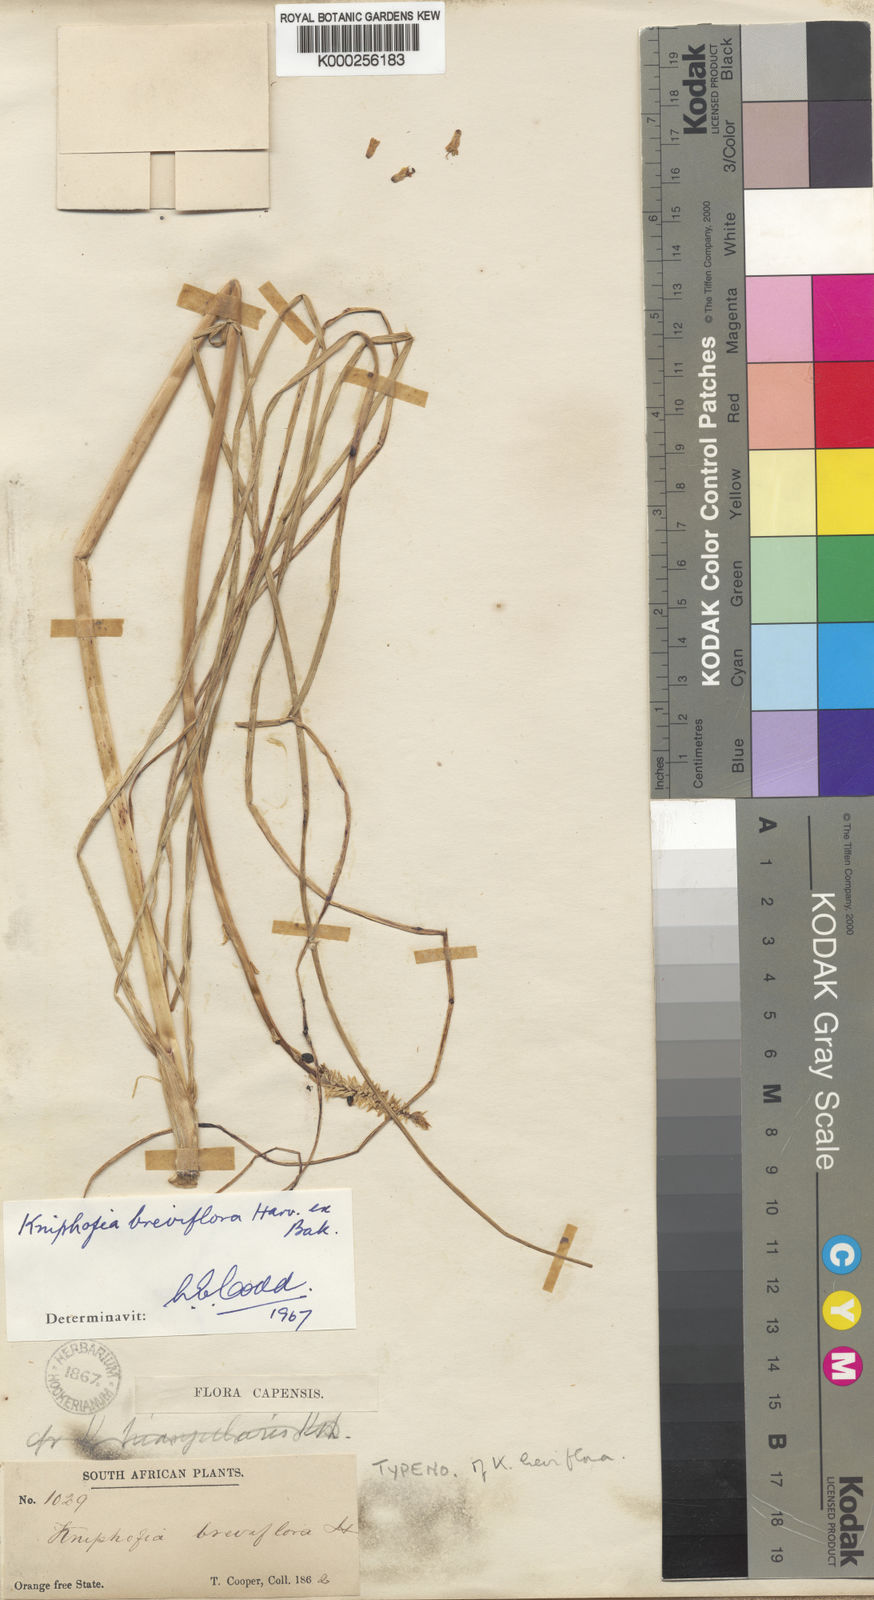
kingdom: Plantae
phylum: Tracheophyta
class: Liliopsida
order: Asparagales
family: Asphodelaceae
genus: Kniphofia
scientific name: Kniphofia breviflora
